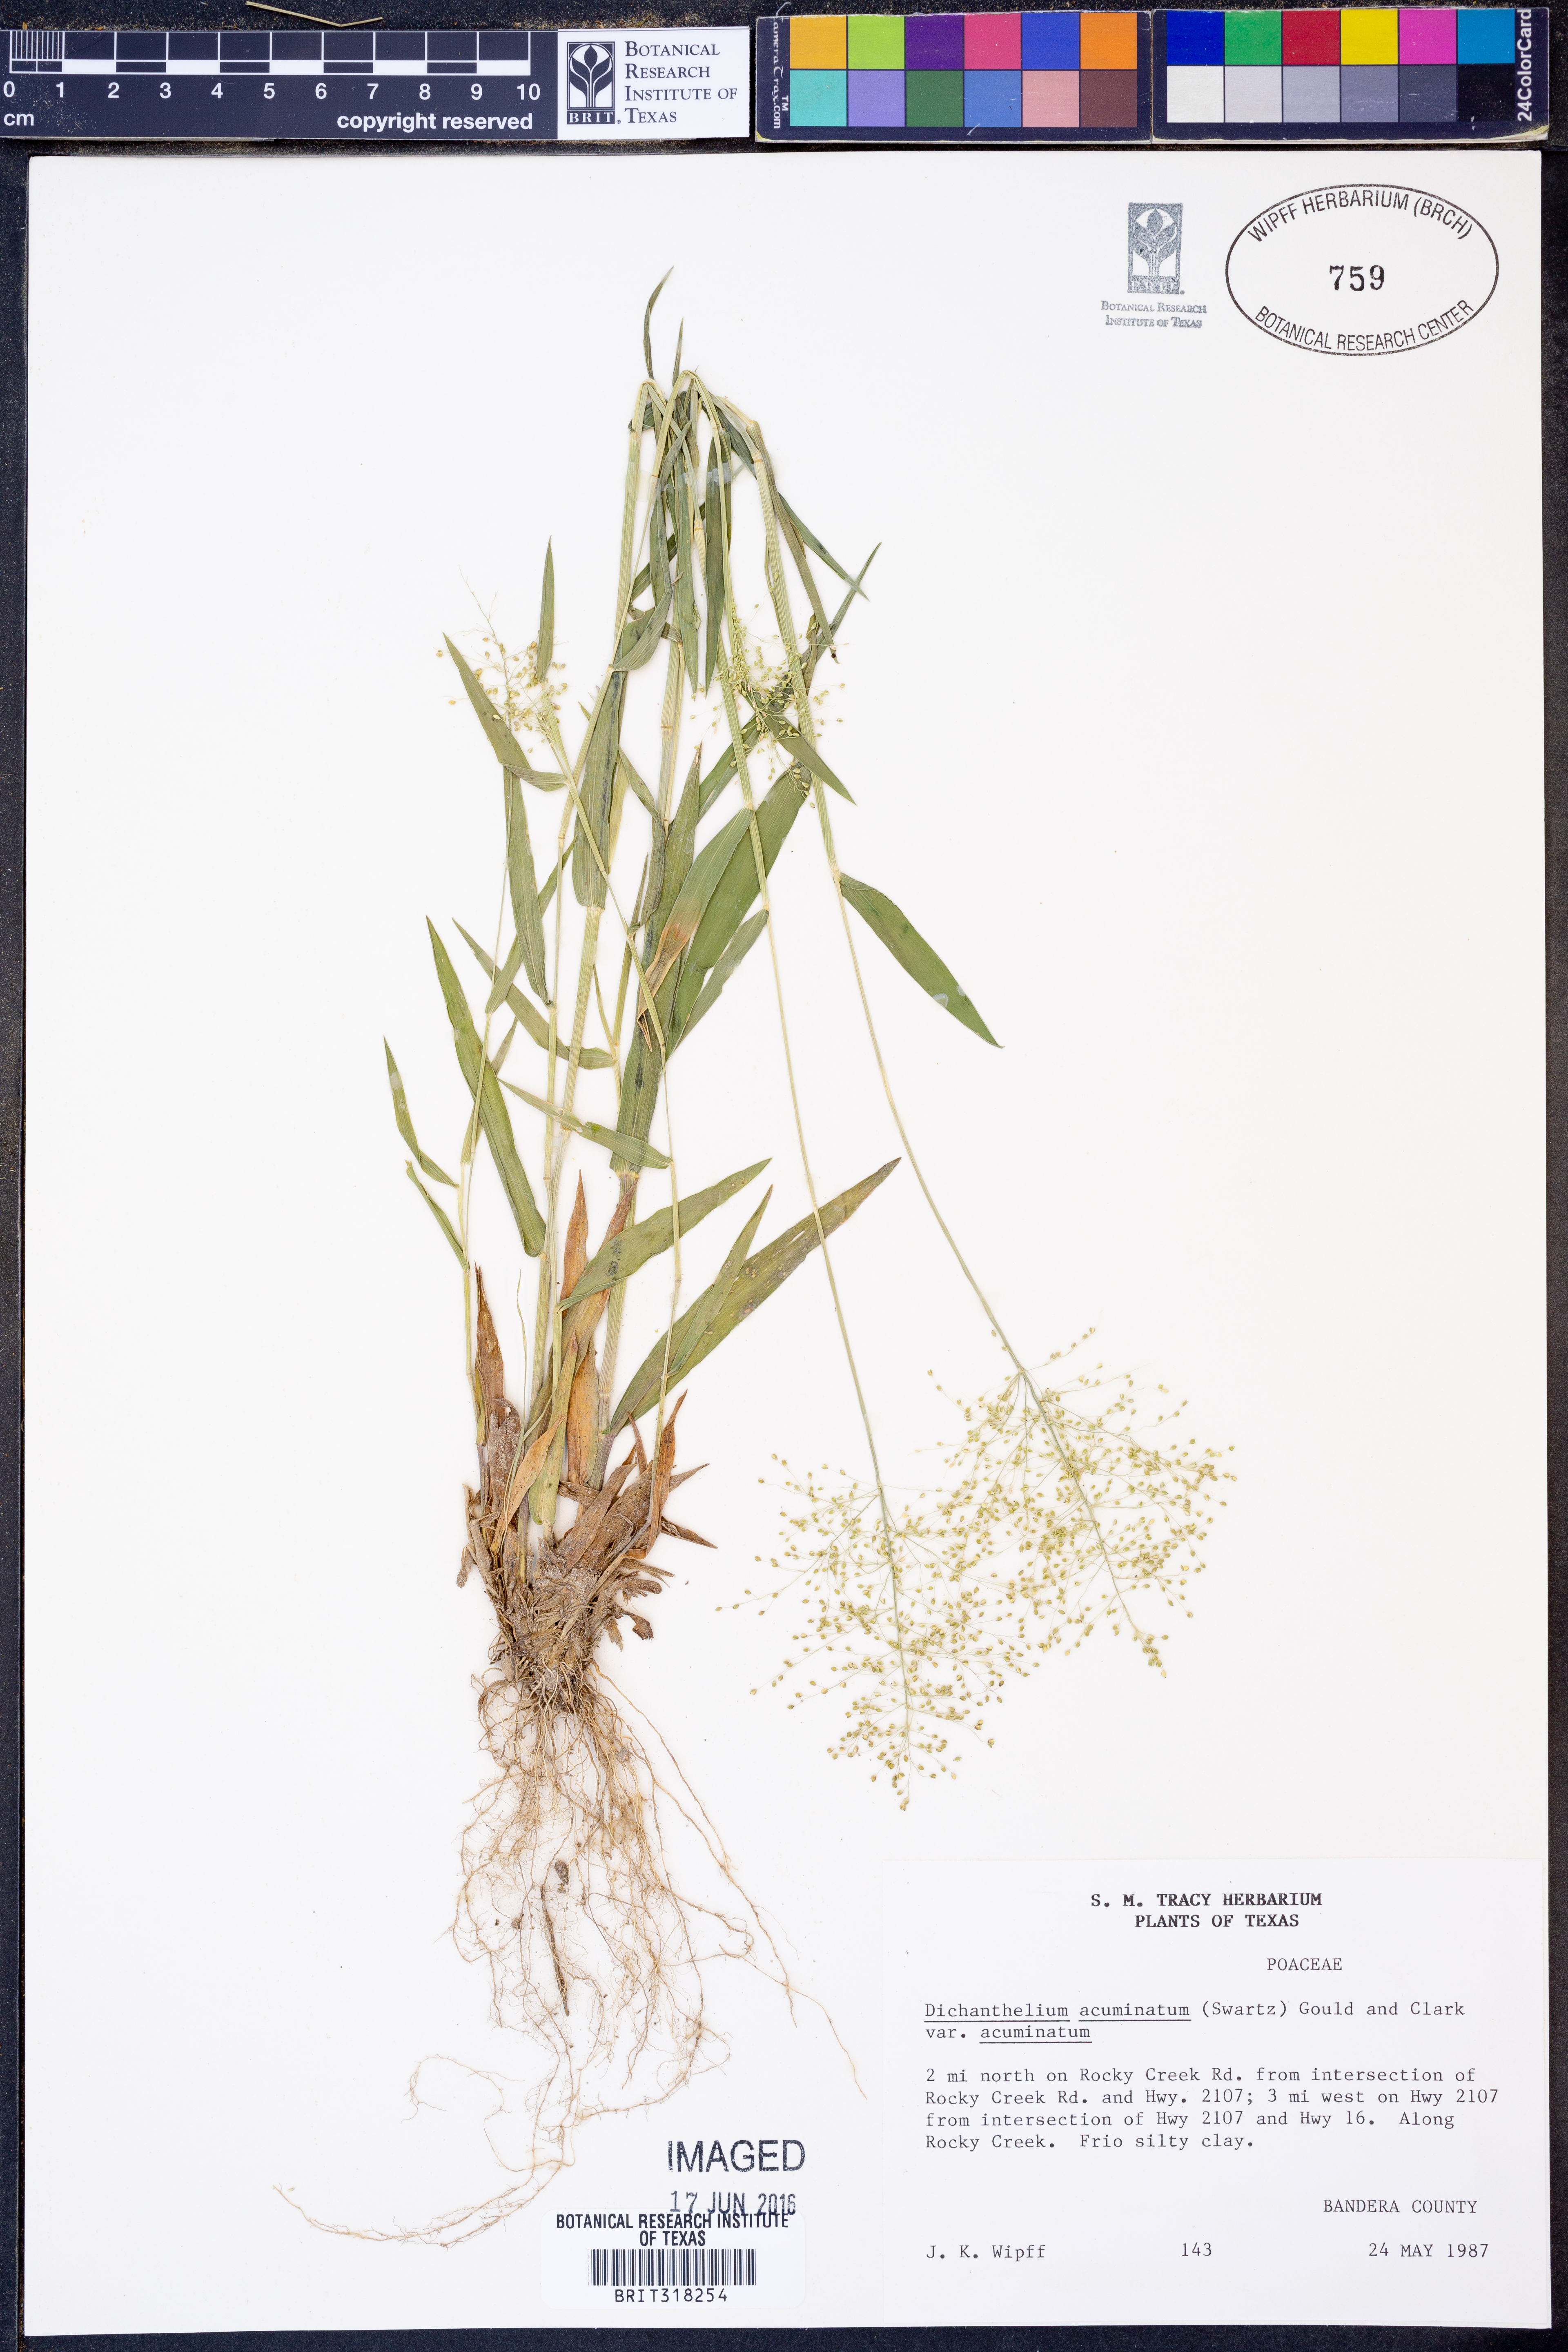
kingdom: Plantae
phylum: Tracheophyta
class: Liliopsida
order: Poales
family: Poaceae
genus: Dichanthelium
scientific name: Dichanthelium acuminatum
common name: Hairy panic grass
